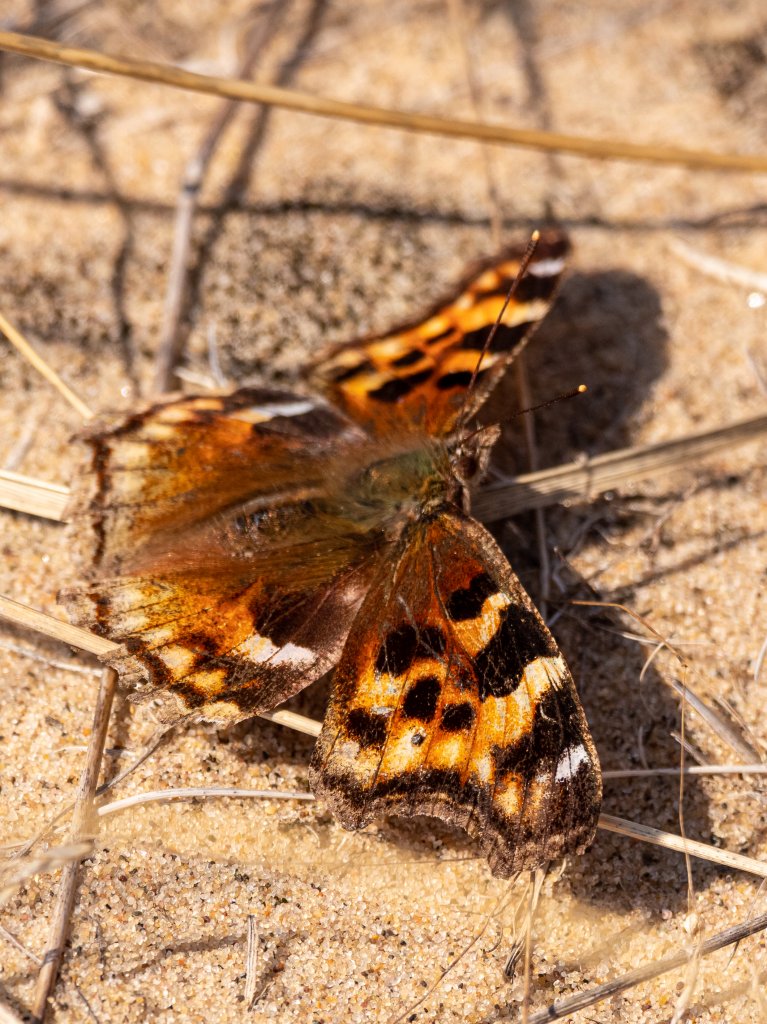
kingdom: Animalia
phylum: Arthropoda
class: Insecta
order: Lepidoptera
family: Nymphalidae
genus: Polygonia
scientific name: Polygonia vaualbum
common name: Compton Tortoiseshell
